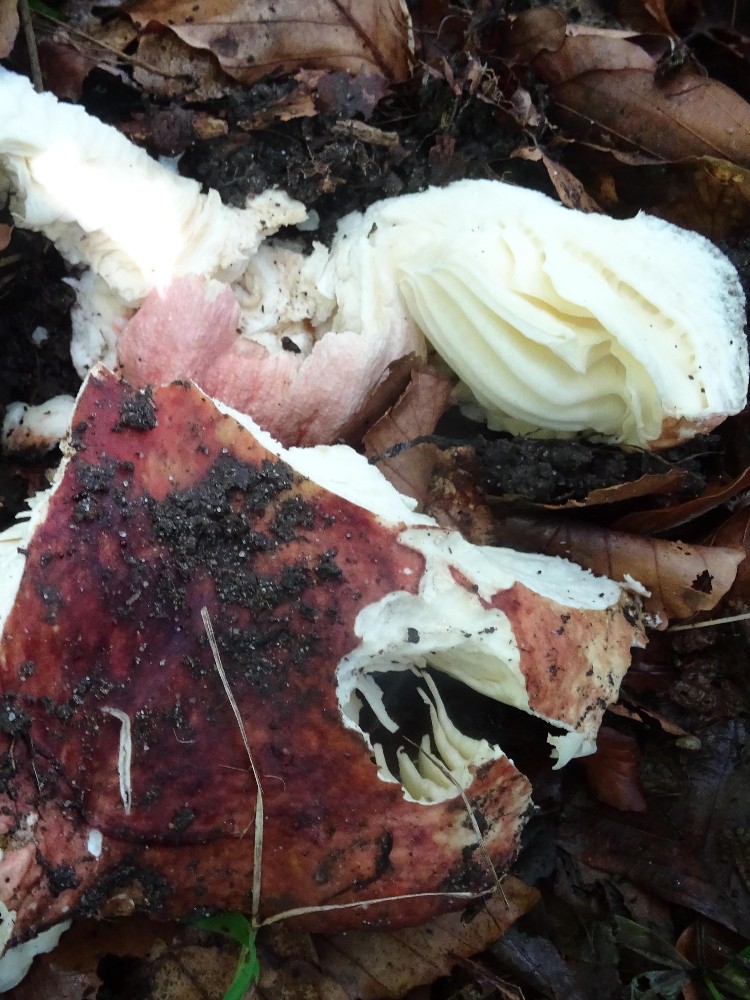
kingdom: Fungi
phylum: Basidiomycota
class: Agaricomycetes
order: Russulales
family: Russulaceae
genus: Russula
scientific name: Russula faginea
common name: bøge-skørhat
